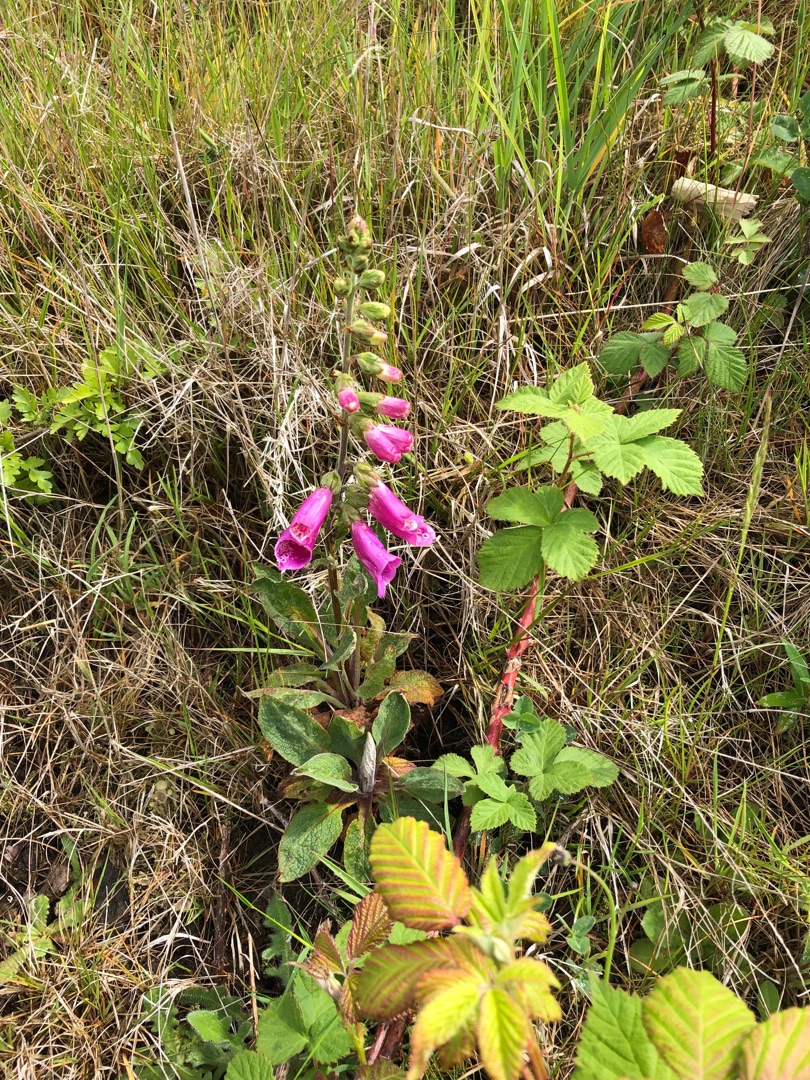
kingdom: Plantae
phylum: Tracheophyta
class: Magnoliopsida
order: Lamiales
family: Plantaginaceae
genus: Digitalis
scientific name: Digitalis purpurea
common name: Almindelig fingerbøl
